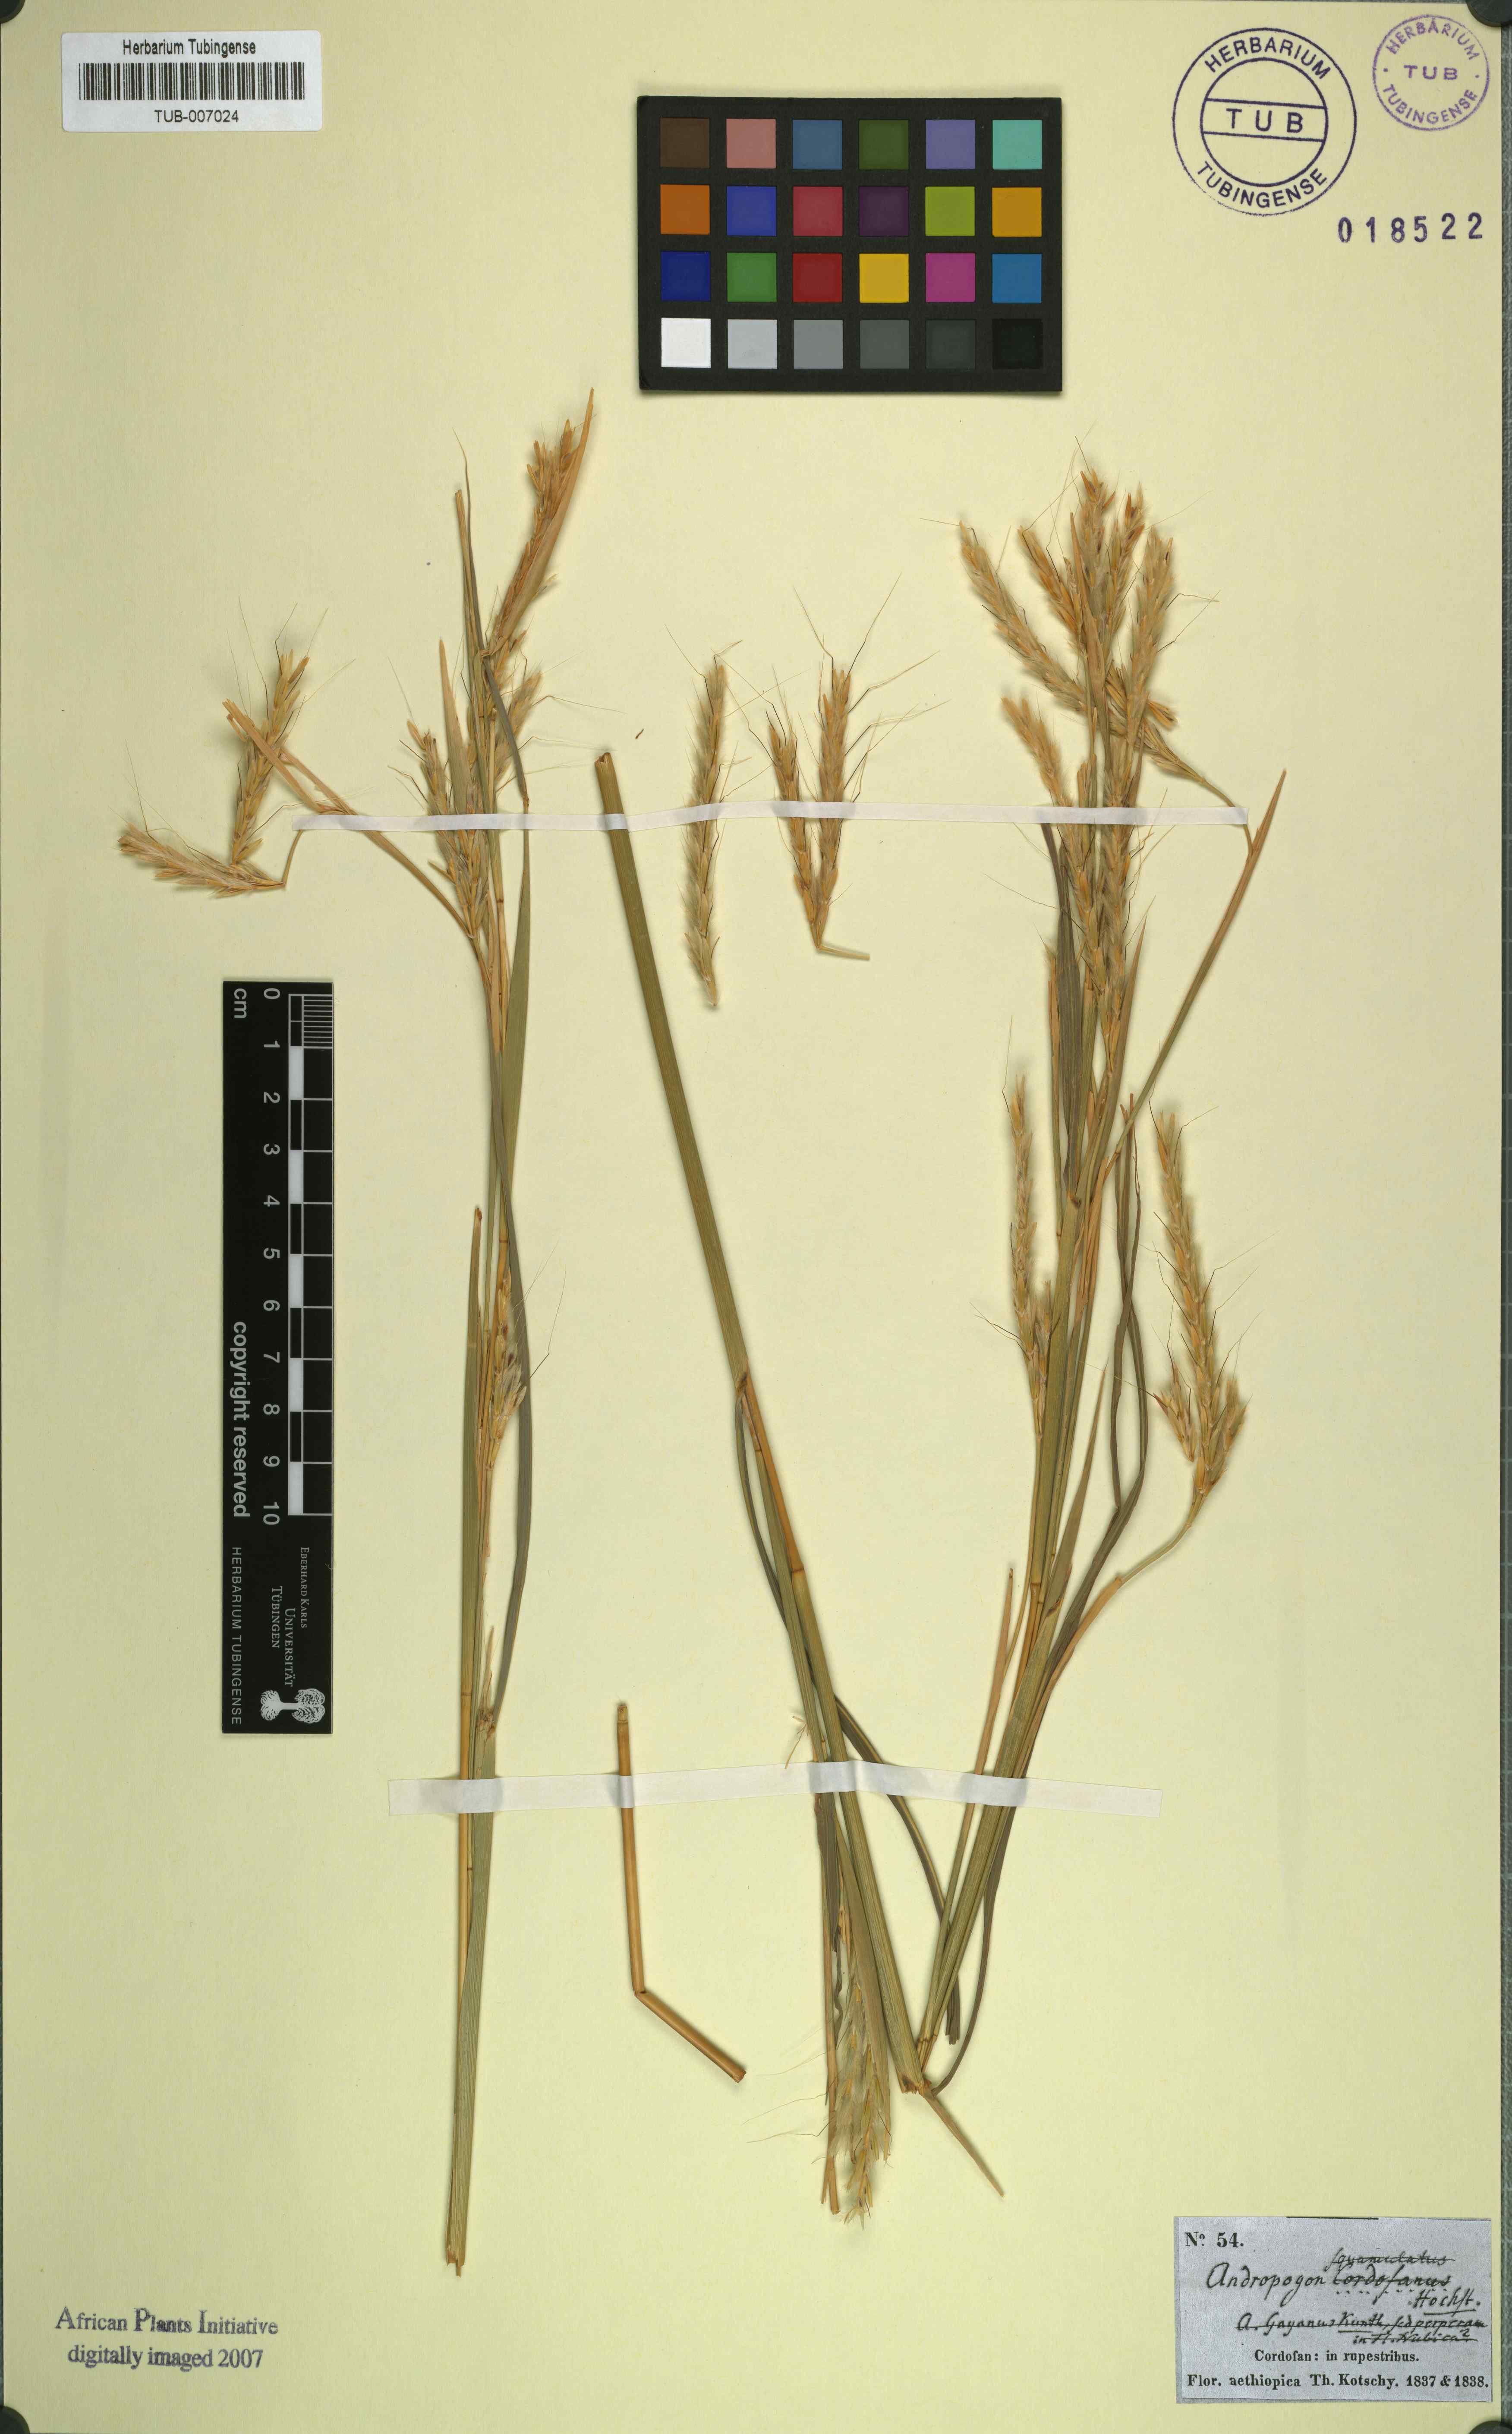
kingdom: Plantae
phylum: Tracheophyta
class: Liliopsida
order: Poales
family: Poaceae
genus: Andropogon
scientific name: Andropogon gayanus
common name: Tambuki grass
